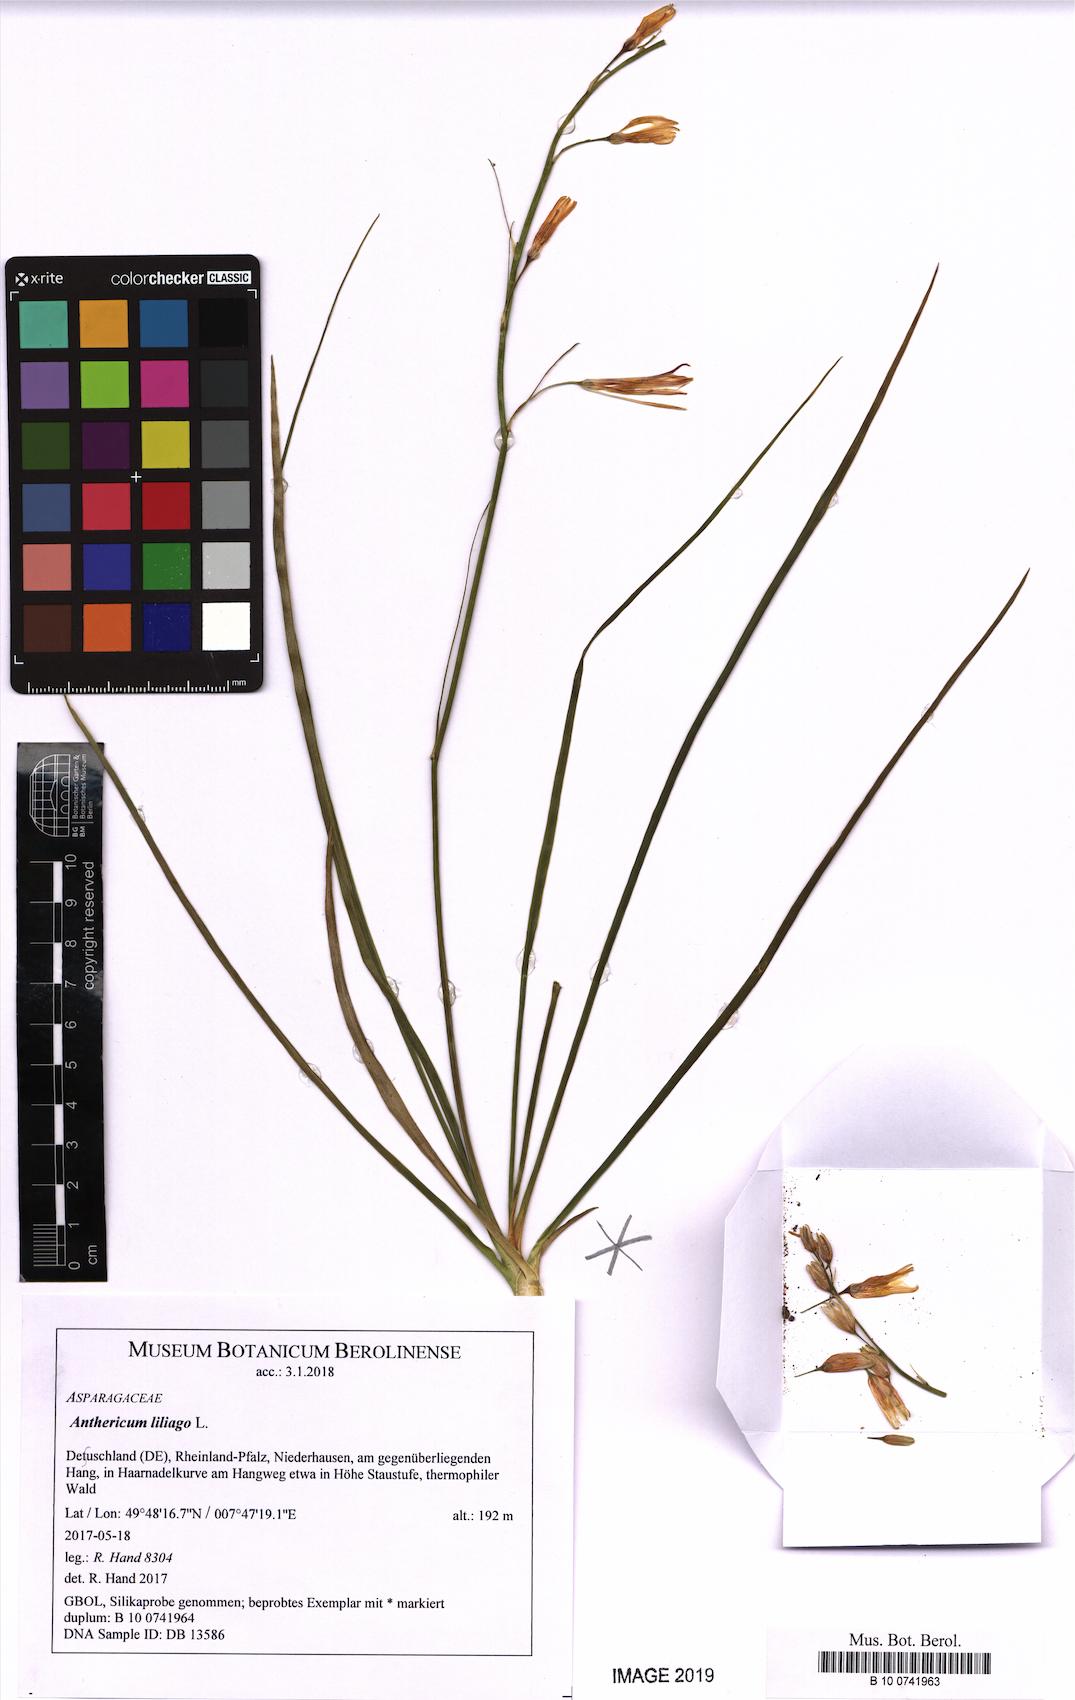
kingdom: Plantae
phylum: Tracheophyta
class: Liliopsida
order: Asparagales
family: Asparagaceae
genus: Anthericum
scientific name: Anthericum liliago
